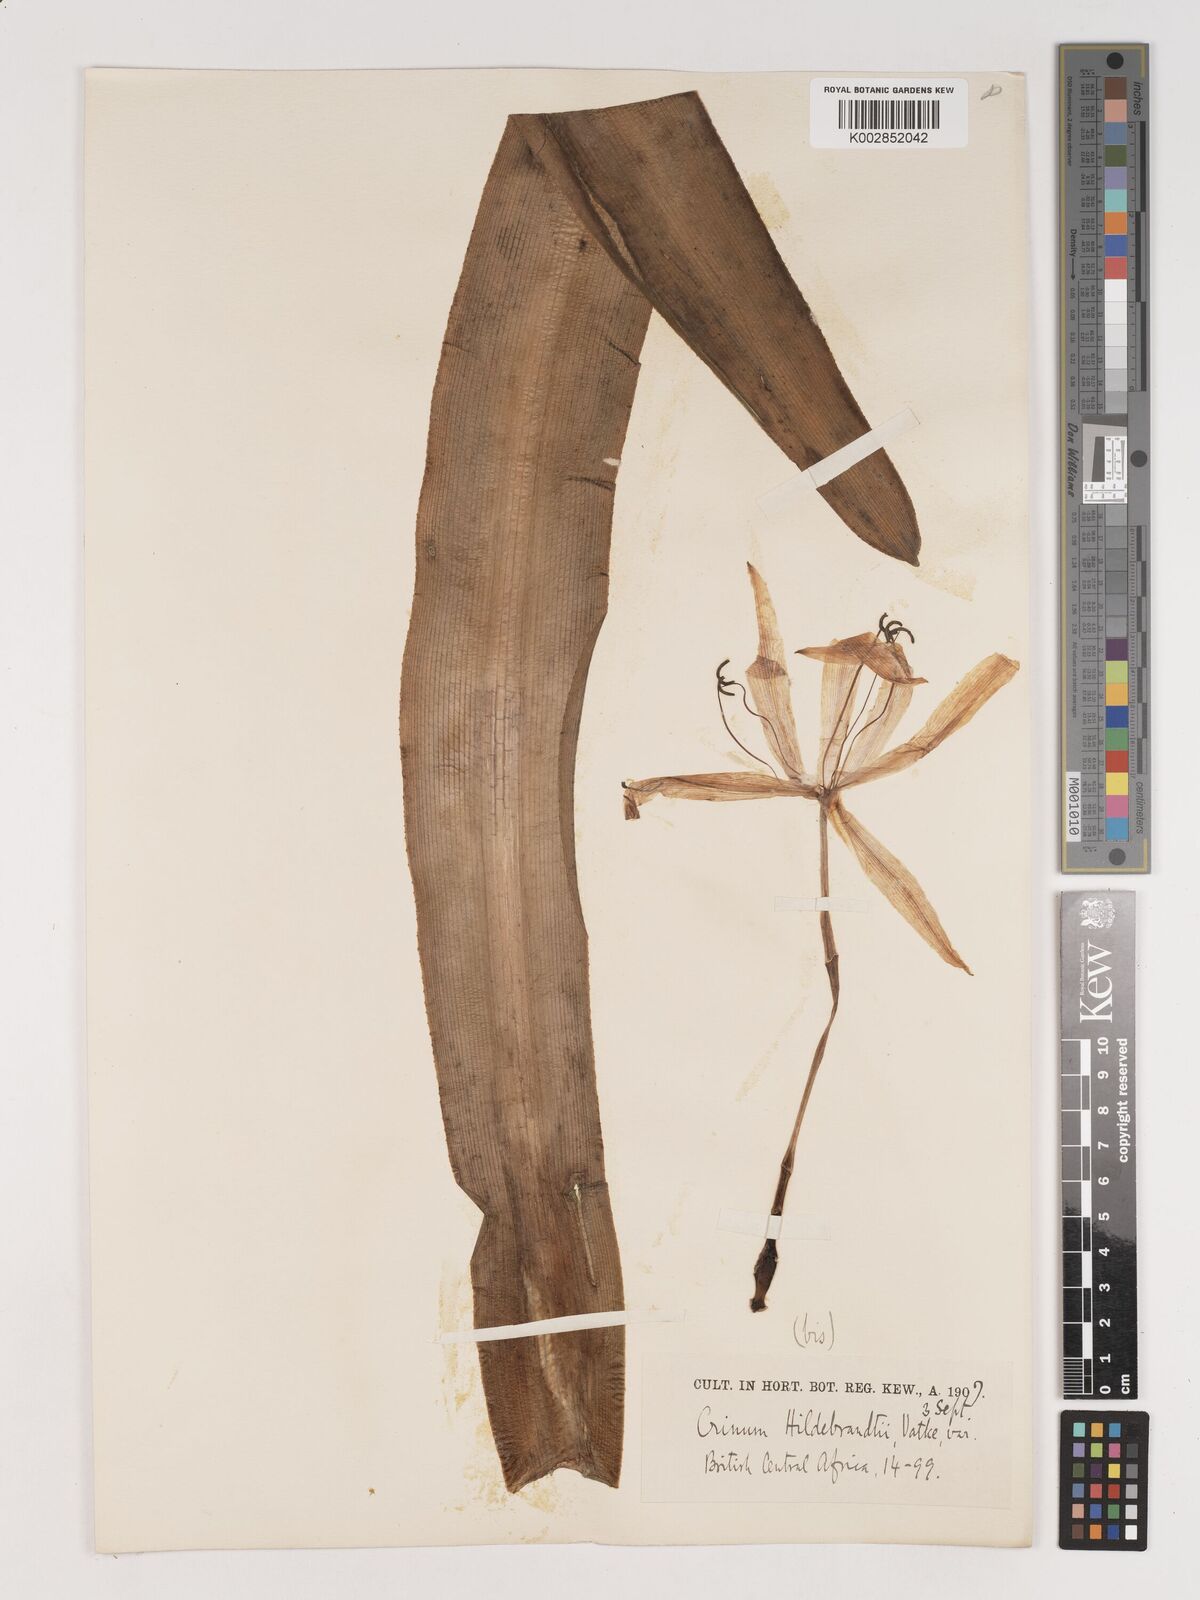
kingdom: Plantae
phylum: Tracheophyta
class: Liliopsida
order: Asparagales
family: Amaryllidaceae
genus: Crinum
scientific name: Crinum hildebrandtii
